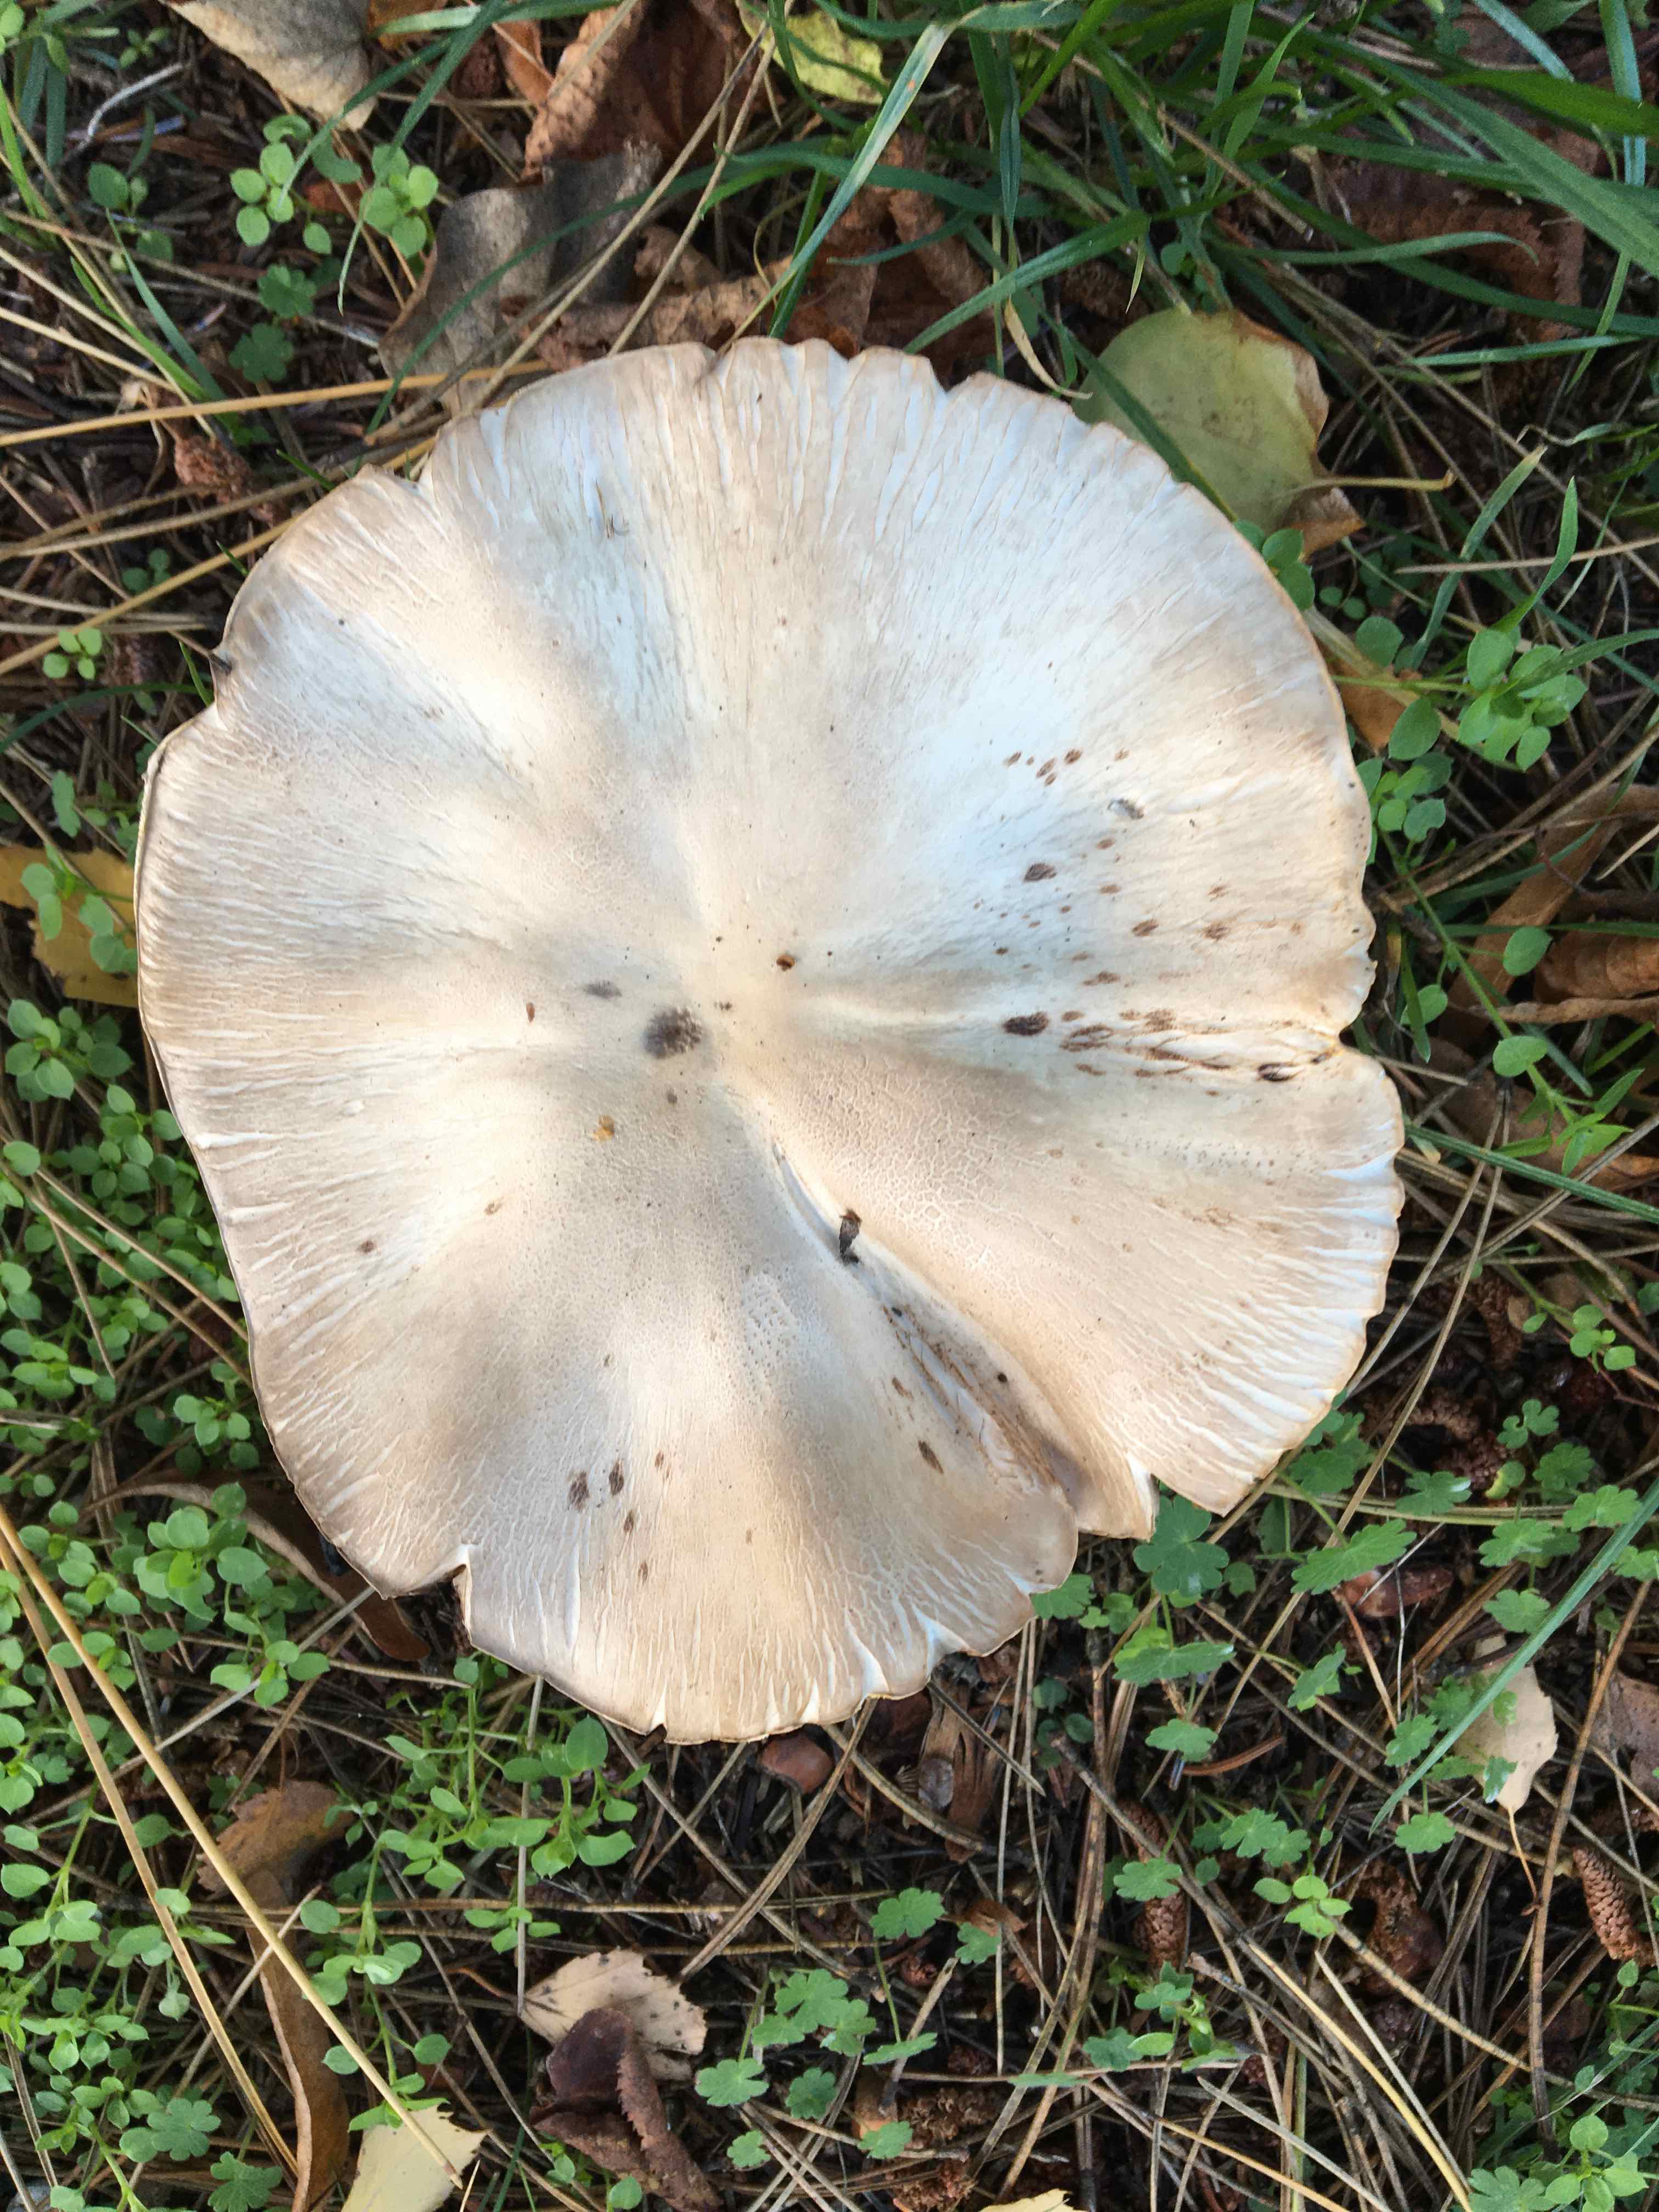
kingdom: Fungi
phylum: Basidiomycota
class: Agaricomycetes
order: Agaricales
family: Agaricaceae
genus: Agaricus
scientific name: Agaricus
